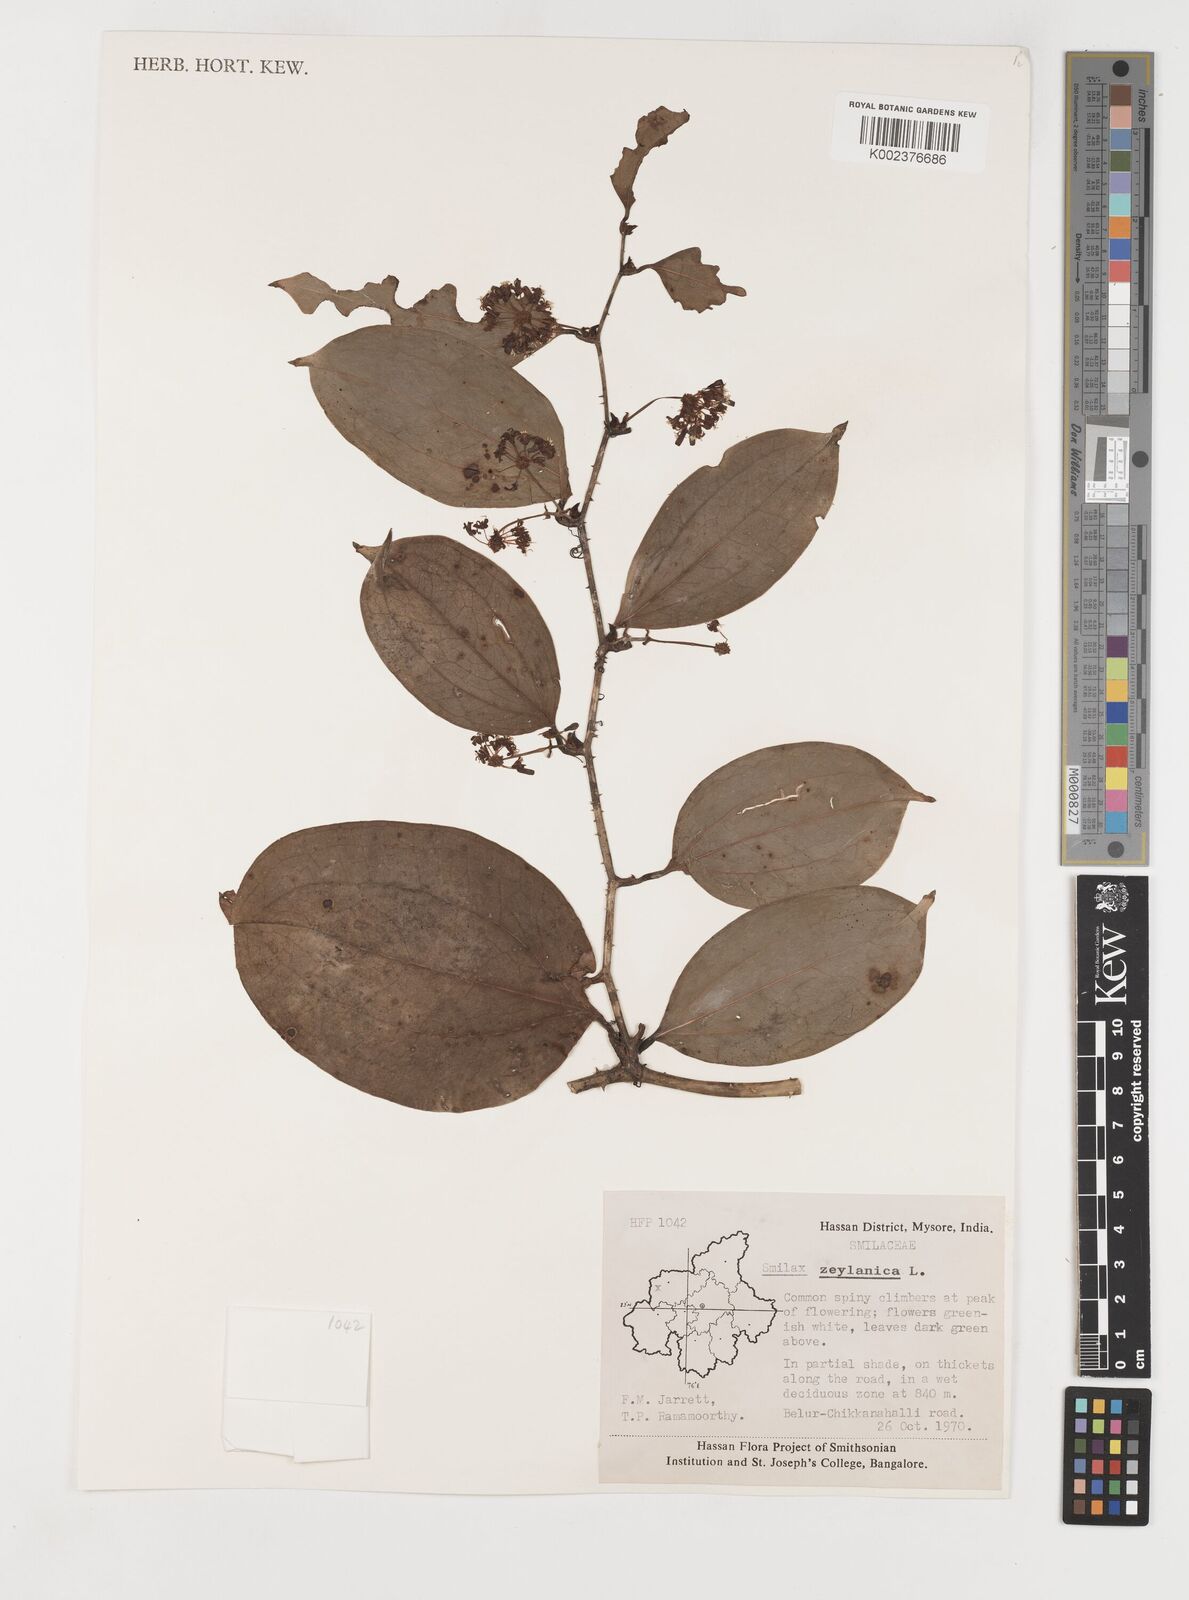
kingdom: Plantae
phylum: Tracheophyta
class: Liliopsida
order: Liliales
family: Smilacaceae
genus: Smilax
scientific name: Smilax zeylanica
